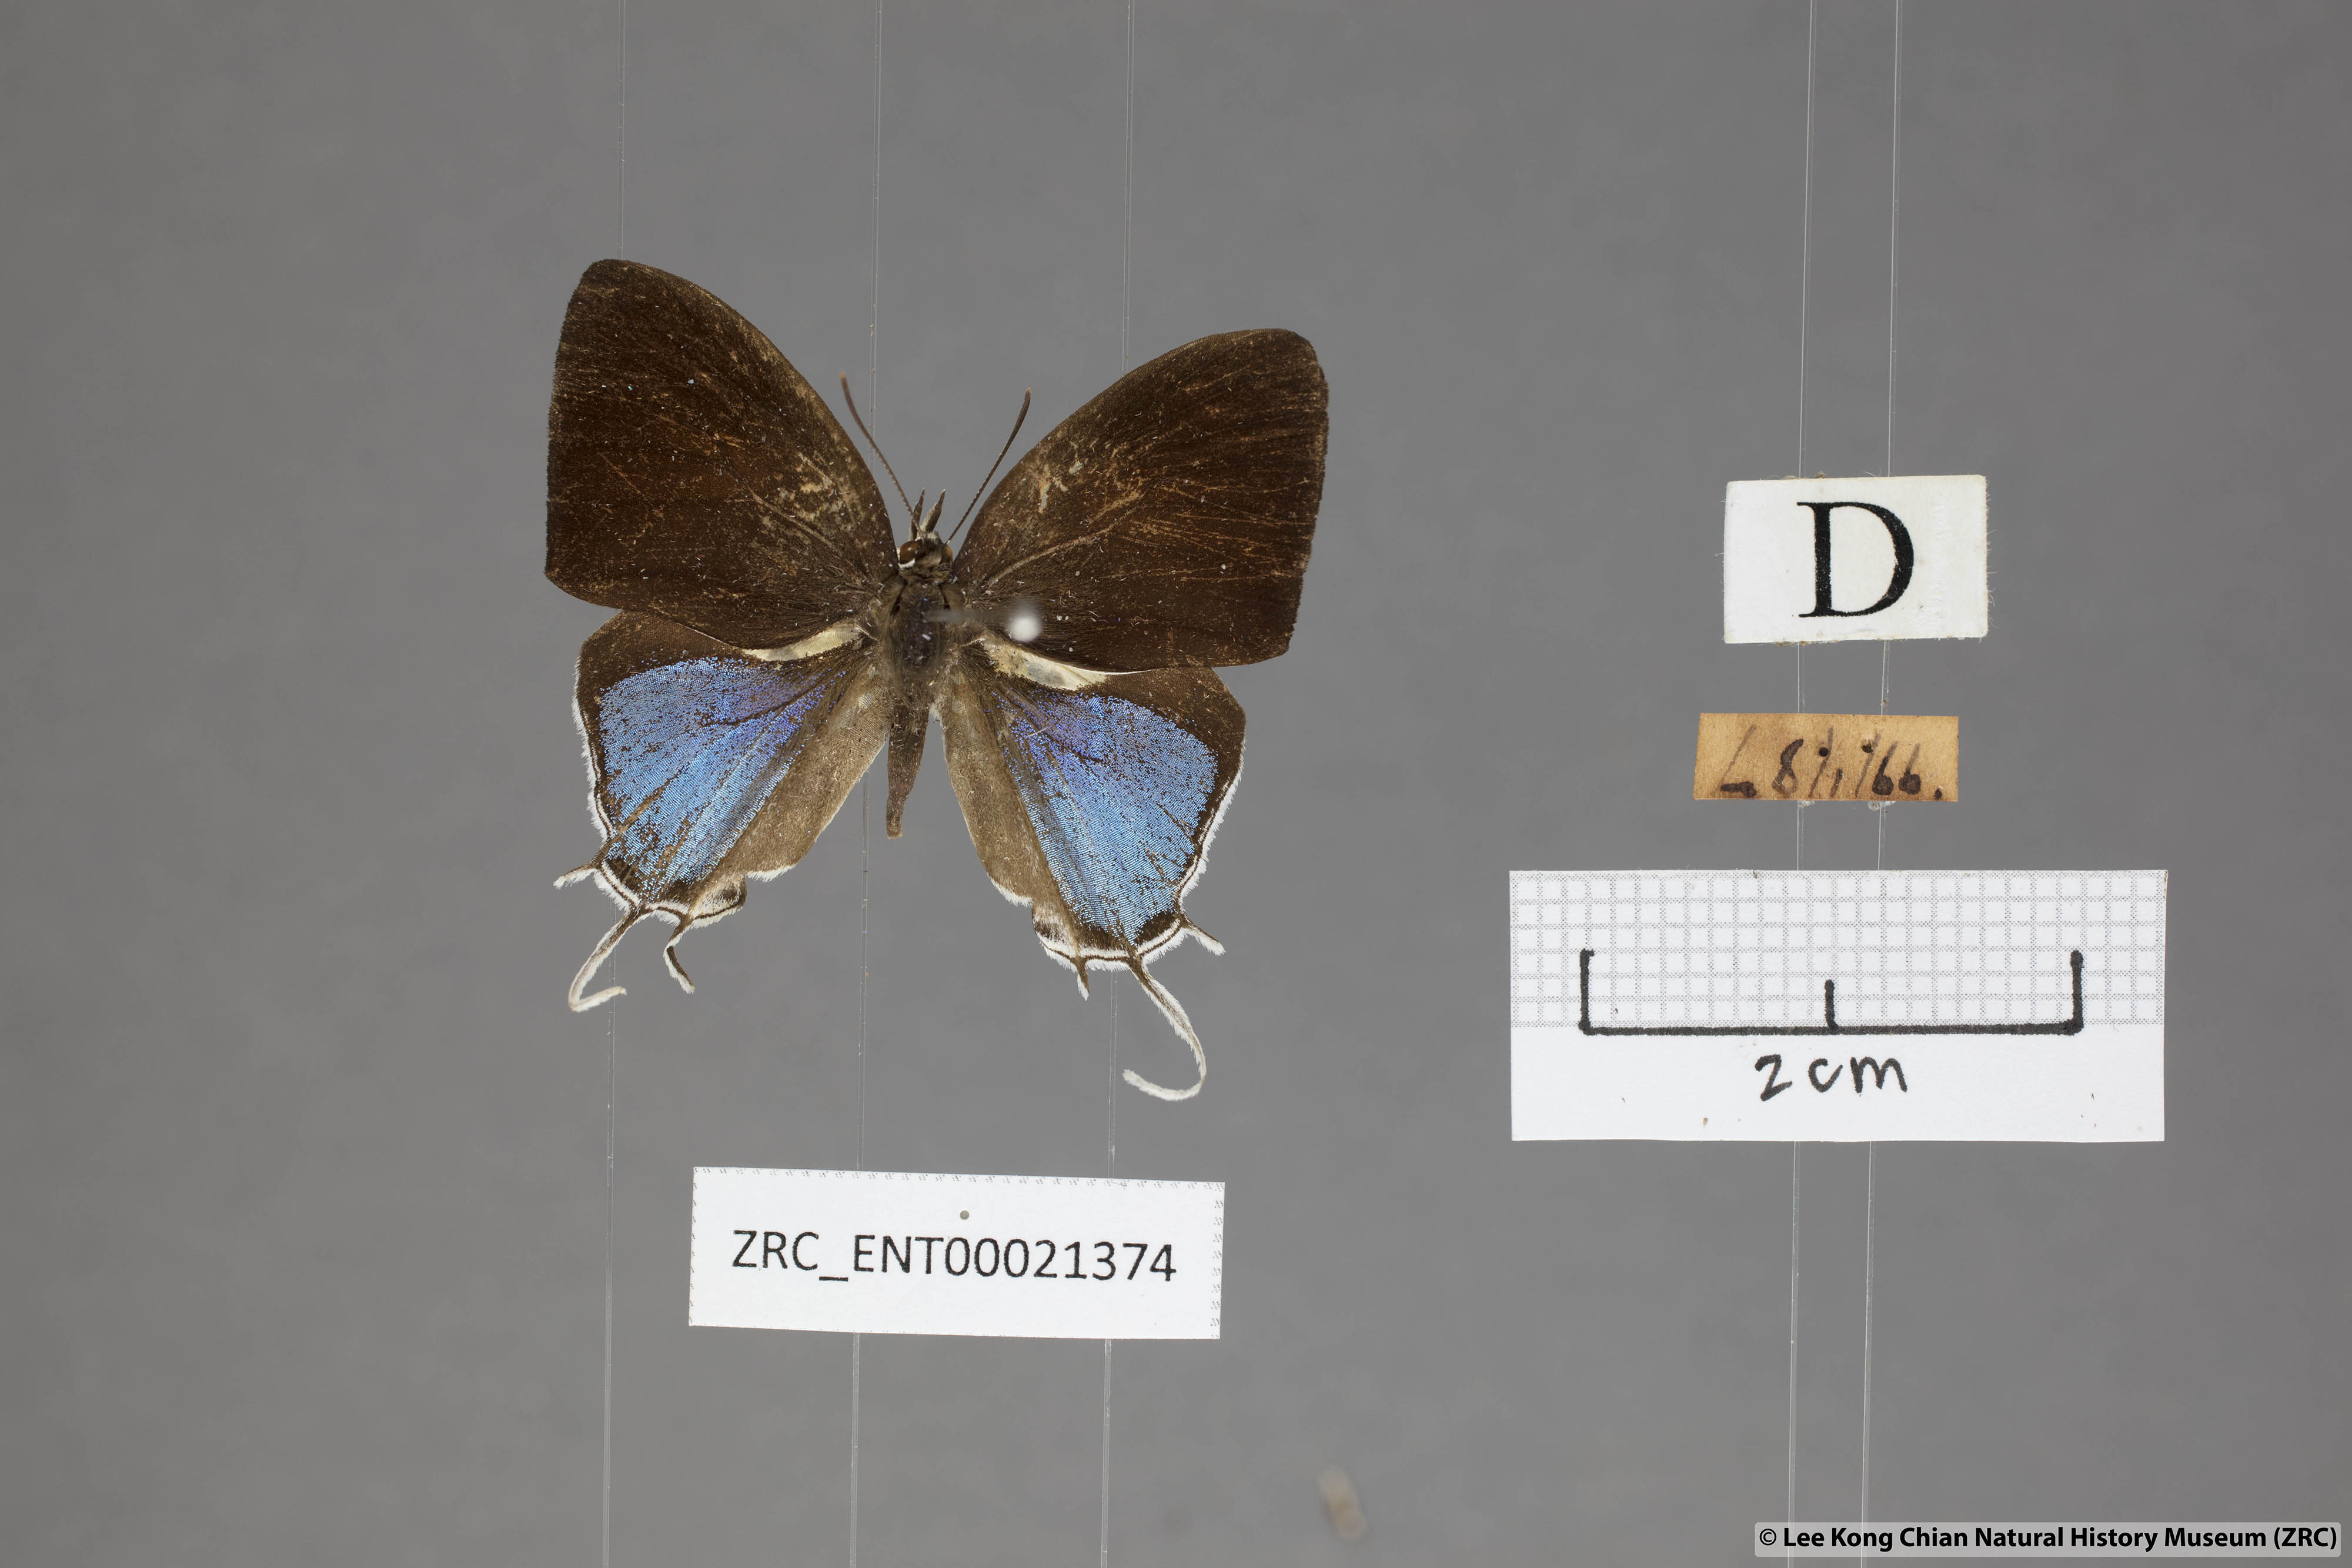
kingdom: Animalia
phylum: Arthropoda
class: Insecta
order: Lepidoptera
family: Lycaenidae
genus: Drupadia
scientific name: Drupadia ravindra
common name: Common posy
